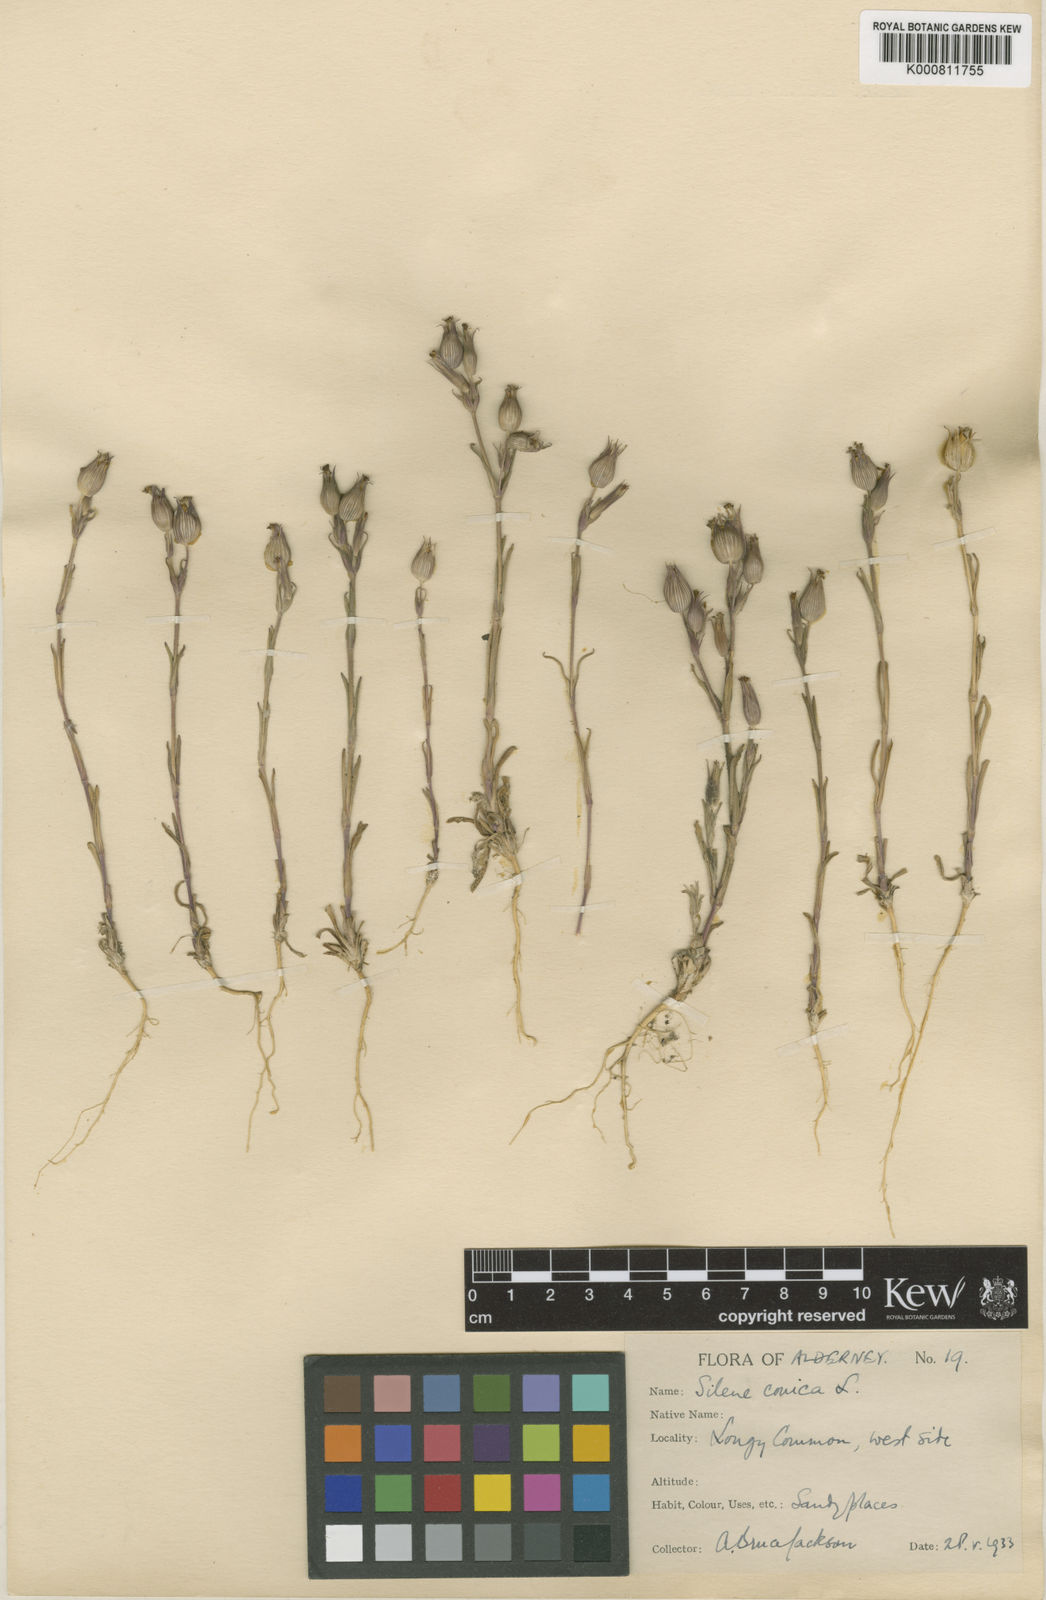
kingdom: Plantae
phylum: Tracheophyta
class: Magnoliopsida
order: Caryophyllales
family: Caryophyllaceae
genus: Silene
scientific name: Silene conica
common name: Sand catchfly
